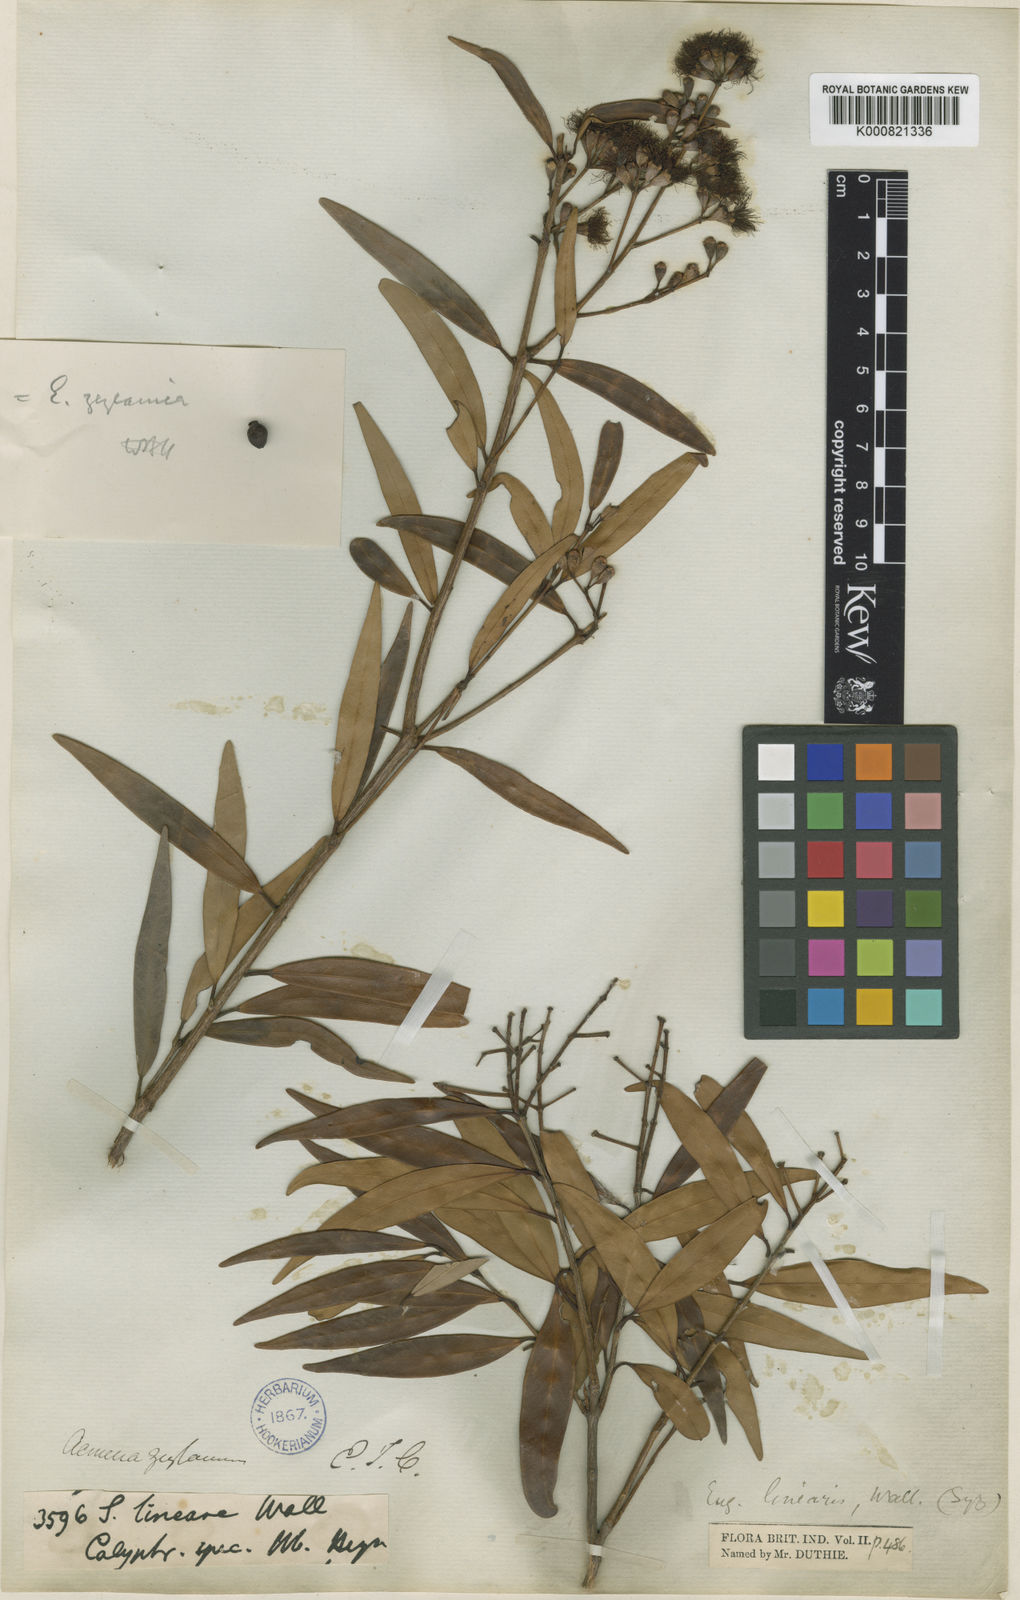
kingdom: Plantae
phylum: Tracheophyta
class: Magnoliopsida
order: Myrtales
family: Myrtaceae
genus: Syzygium
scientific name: Syzygium zeylanicum
